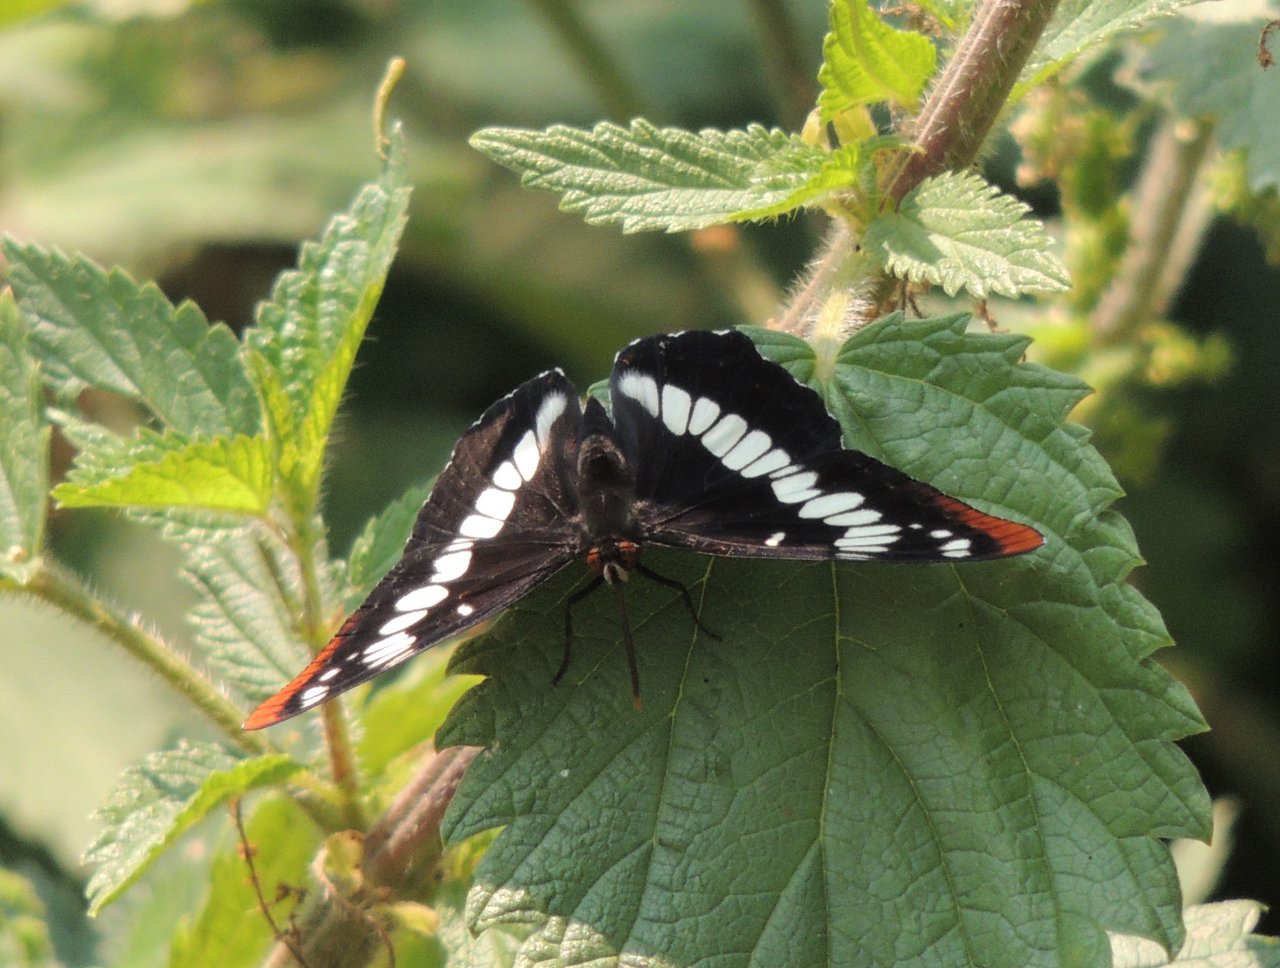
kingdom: Animalia
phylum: Arthropoda
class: Insecta
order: Lepidoptera
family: Nymphalidae
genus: Limenitis
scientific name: Limenitis lorquini
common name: Lorquin's Admiral
